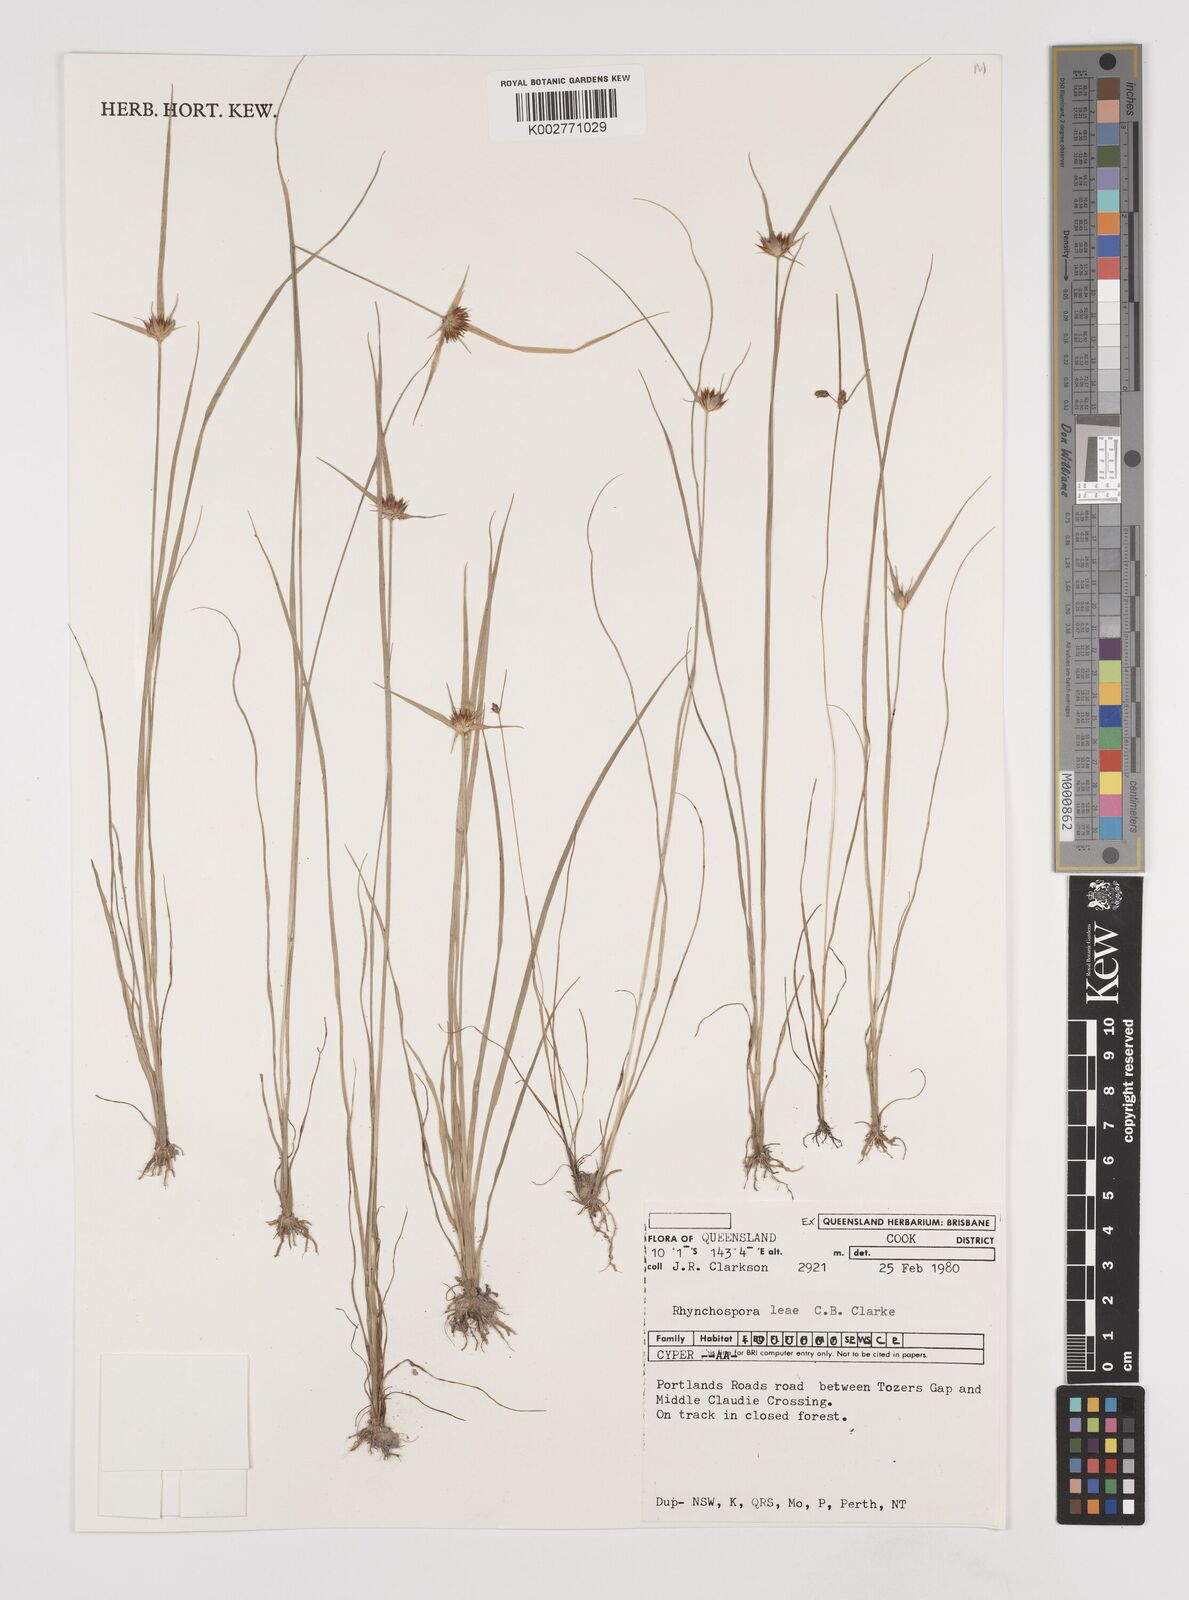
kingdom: Plantae
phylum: Tracheophyta
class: Liliopsida
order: Poales
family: Cyperaceae
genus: Rhynchospora
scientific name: Rhynchospora leae
